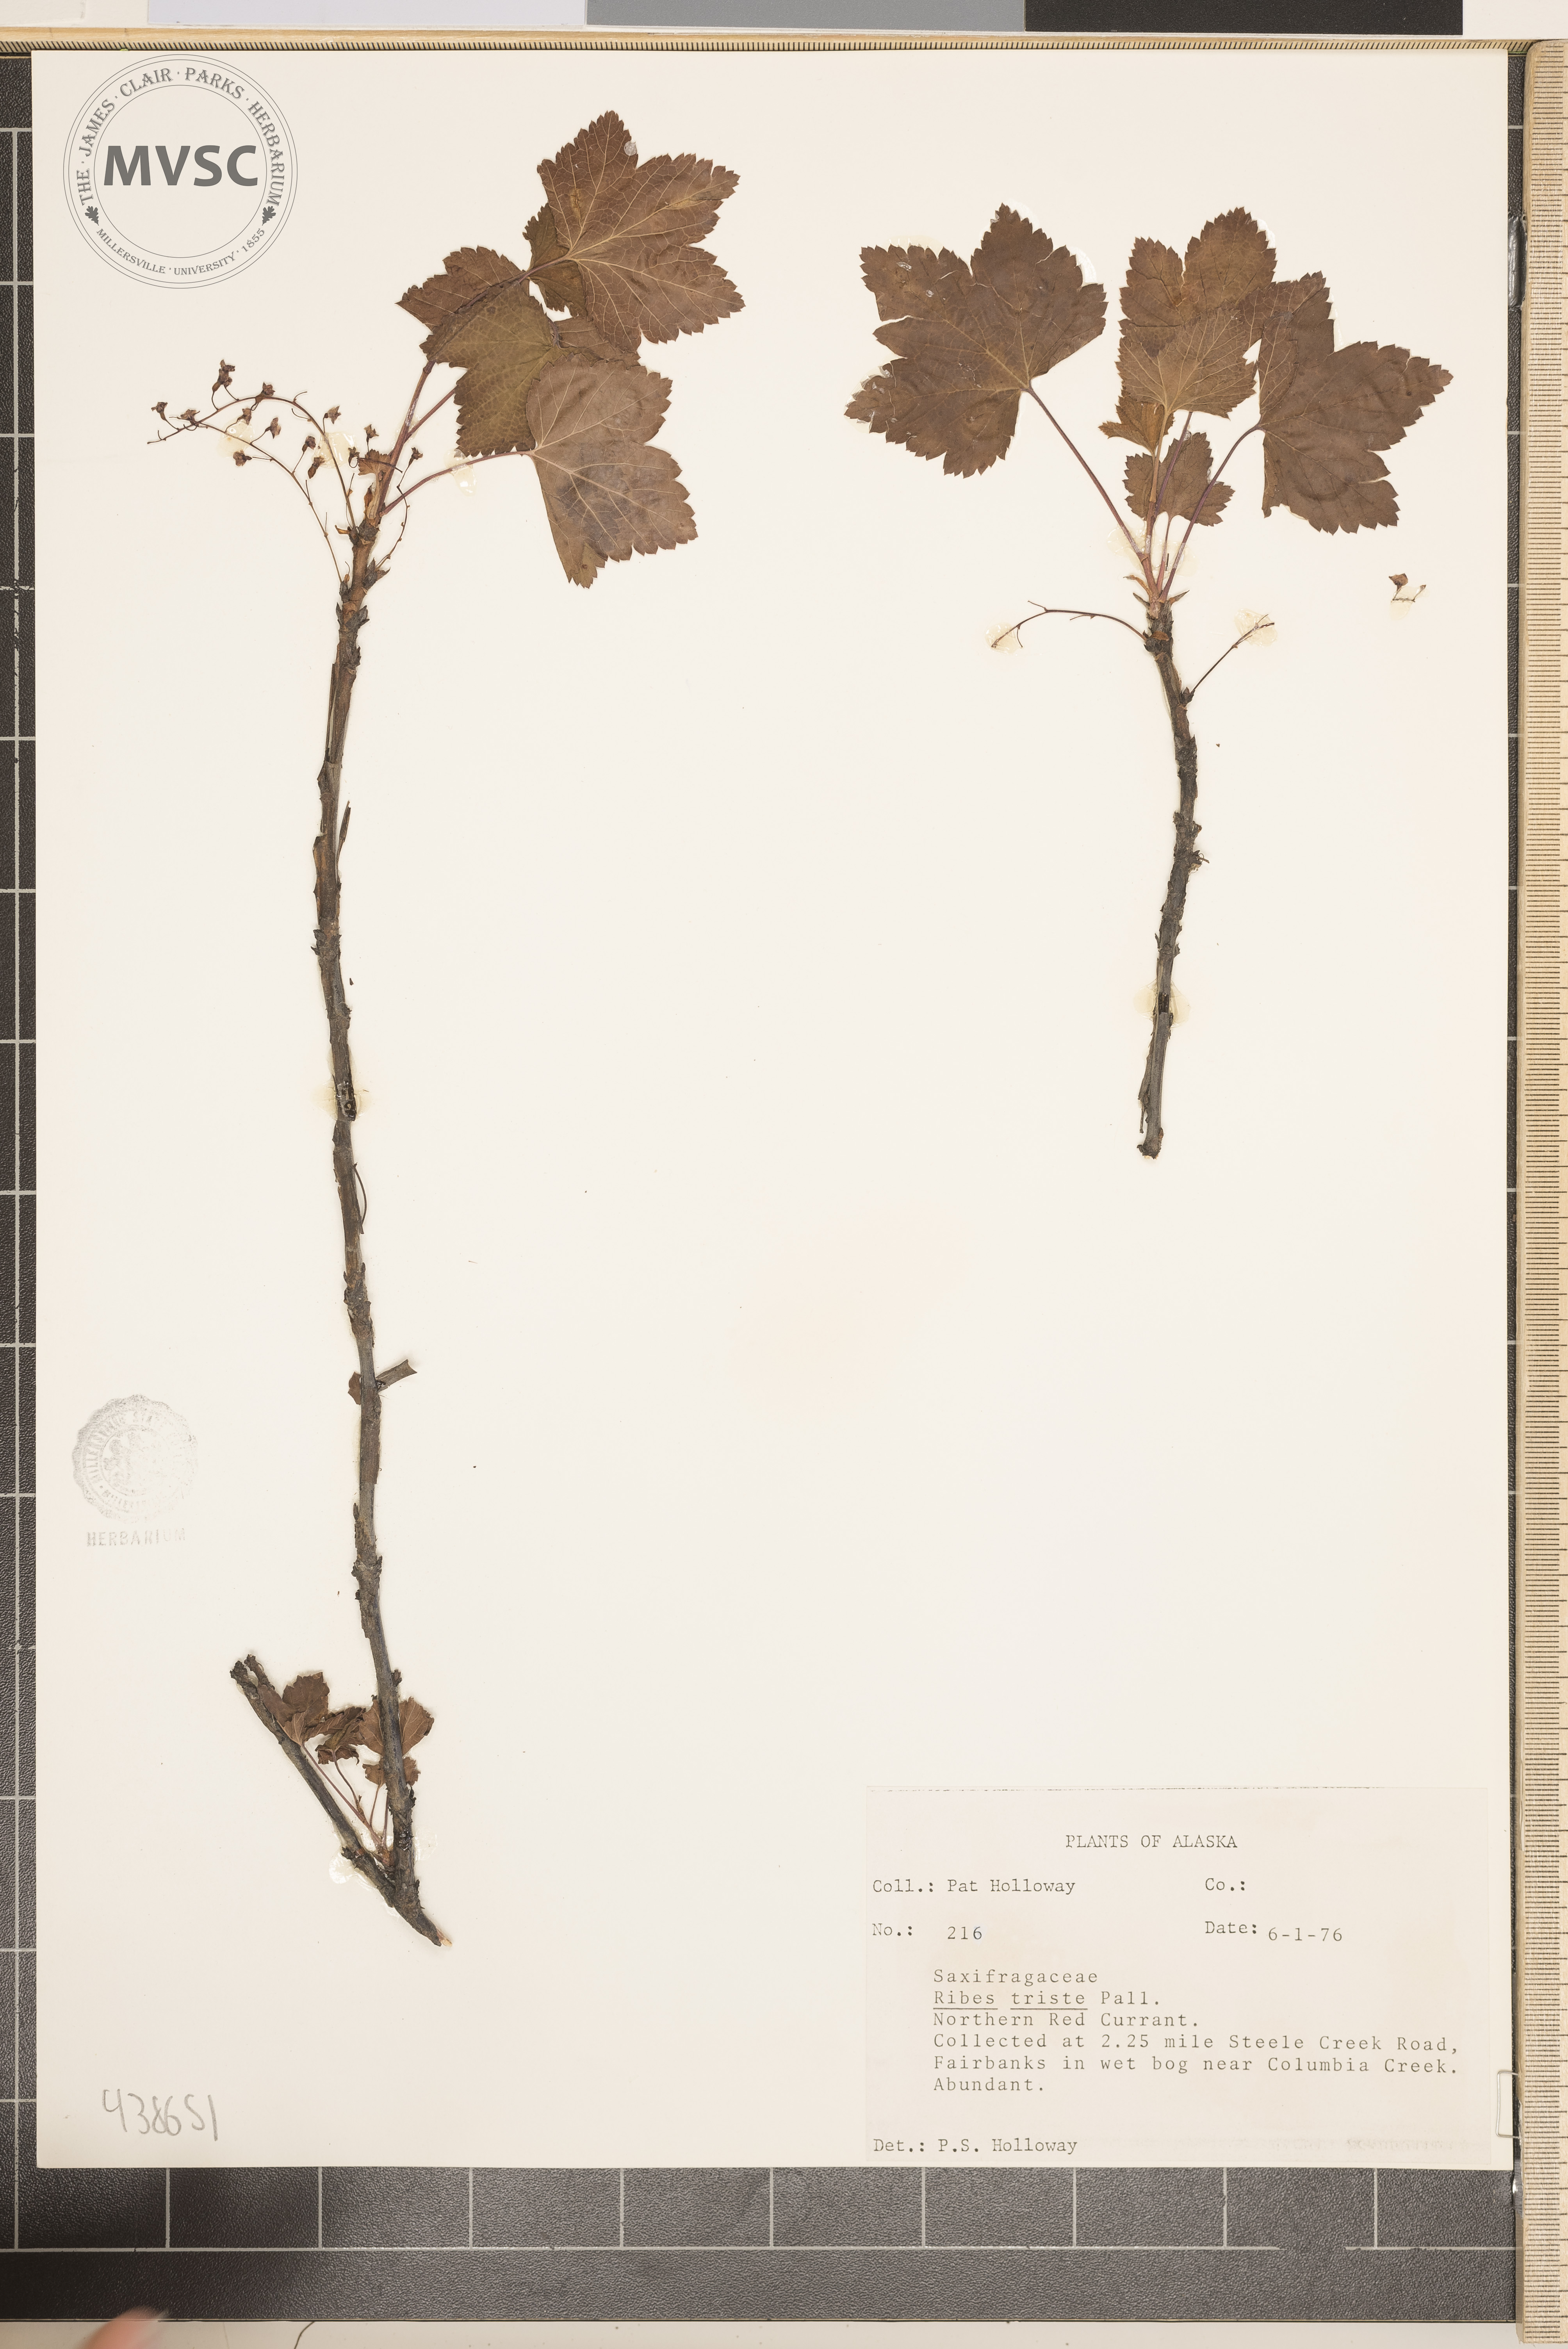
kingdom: Plantae
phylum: Tracheophyta
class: Magnoliopsida
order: Saxifragales
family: Grossulariaceae
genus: Ribes
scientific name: Ribes triste
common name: Swamp red currant
